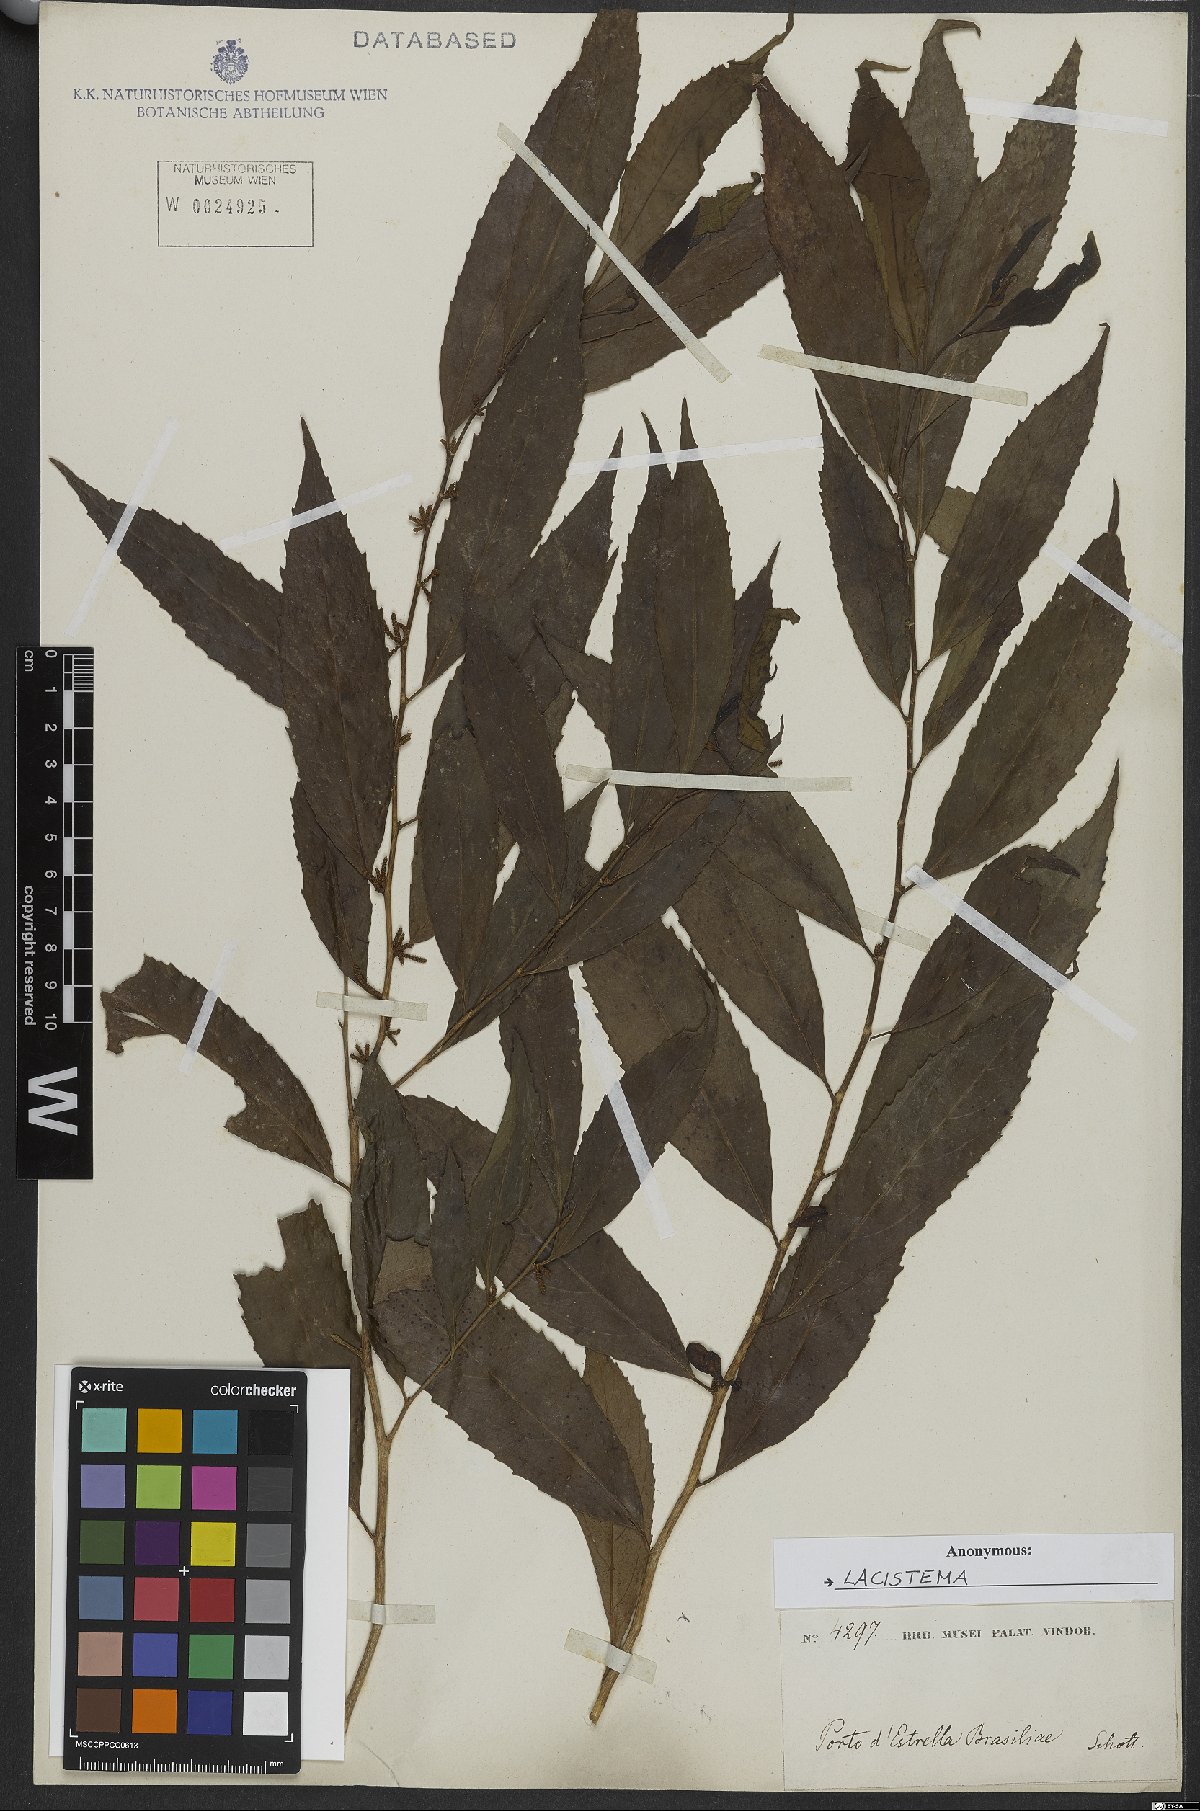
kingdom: Plantae
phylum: Tracheophyta
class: Magnoliopsida
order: Malpighiales
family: Lacistemataceae
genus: Lacistema
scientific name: Lacistema
